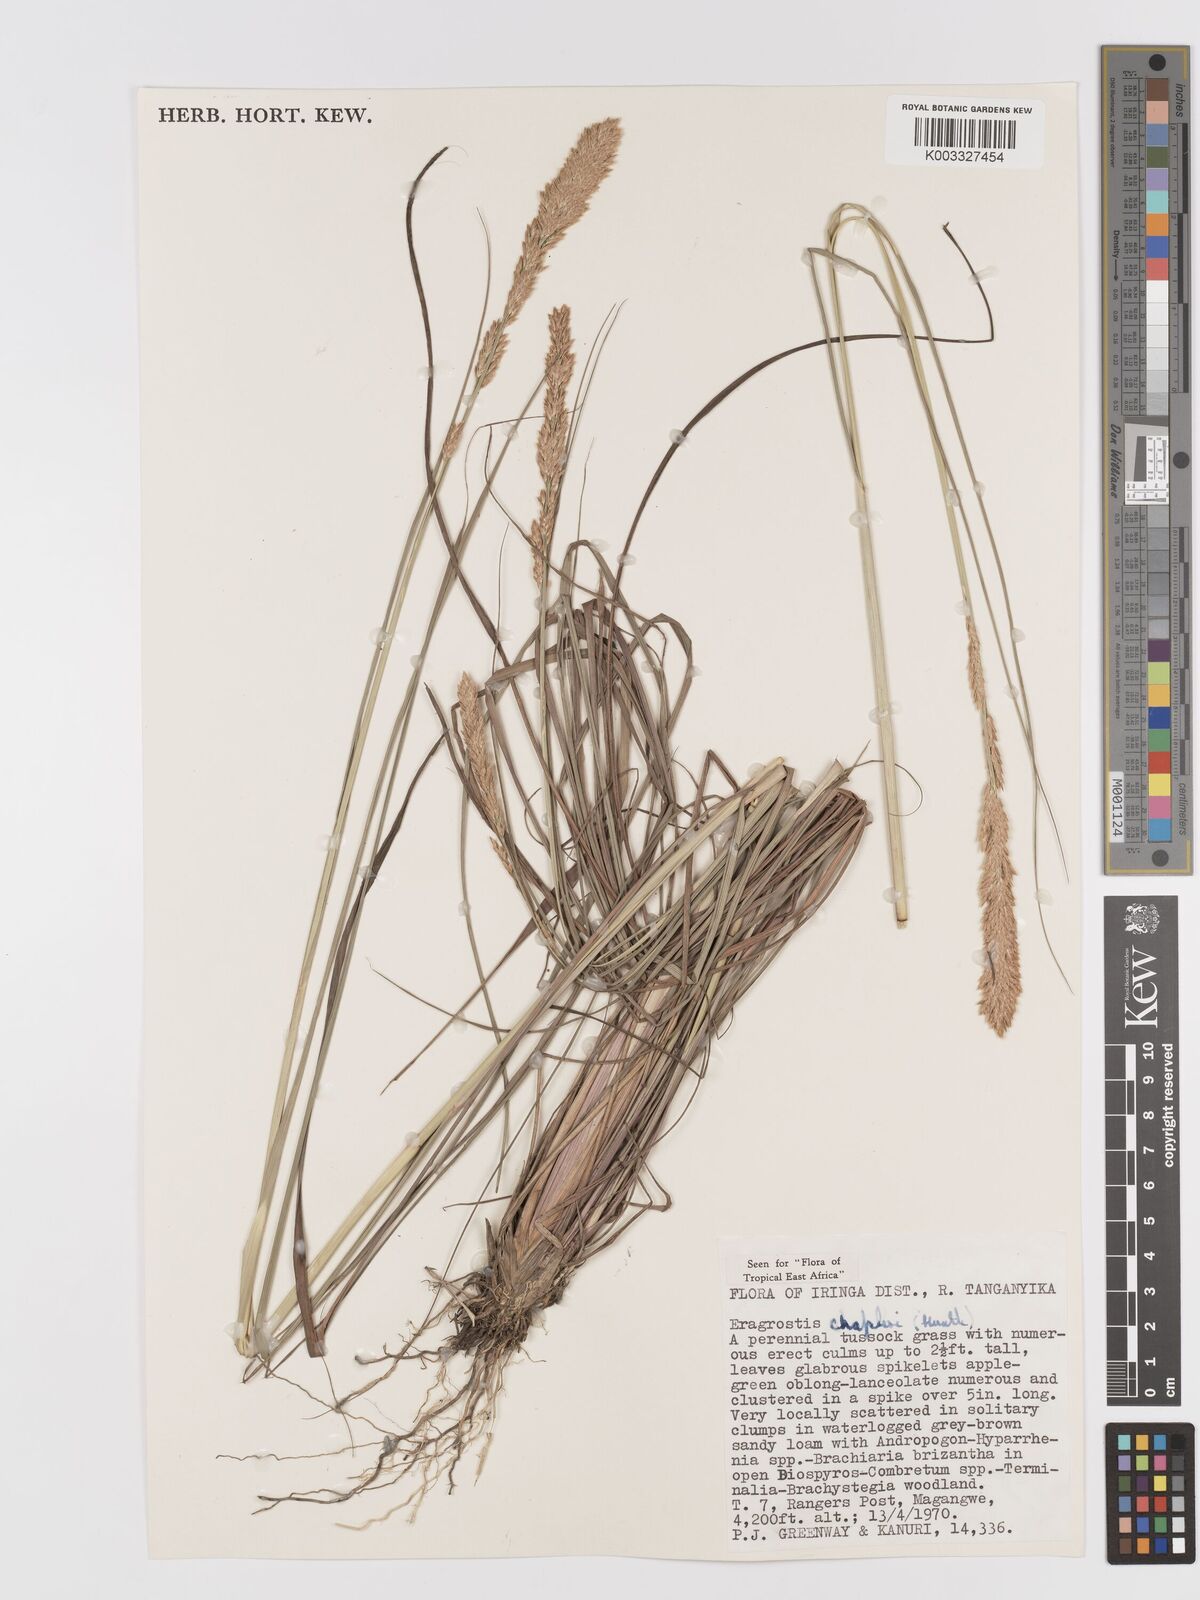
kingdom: Plantae
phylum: Tracheophyta
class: Liliopsida
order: Poales
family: Poaceae
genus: Eragrostis
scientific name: Eragrostis chapelieri
